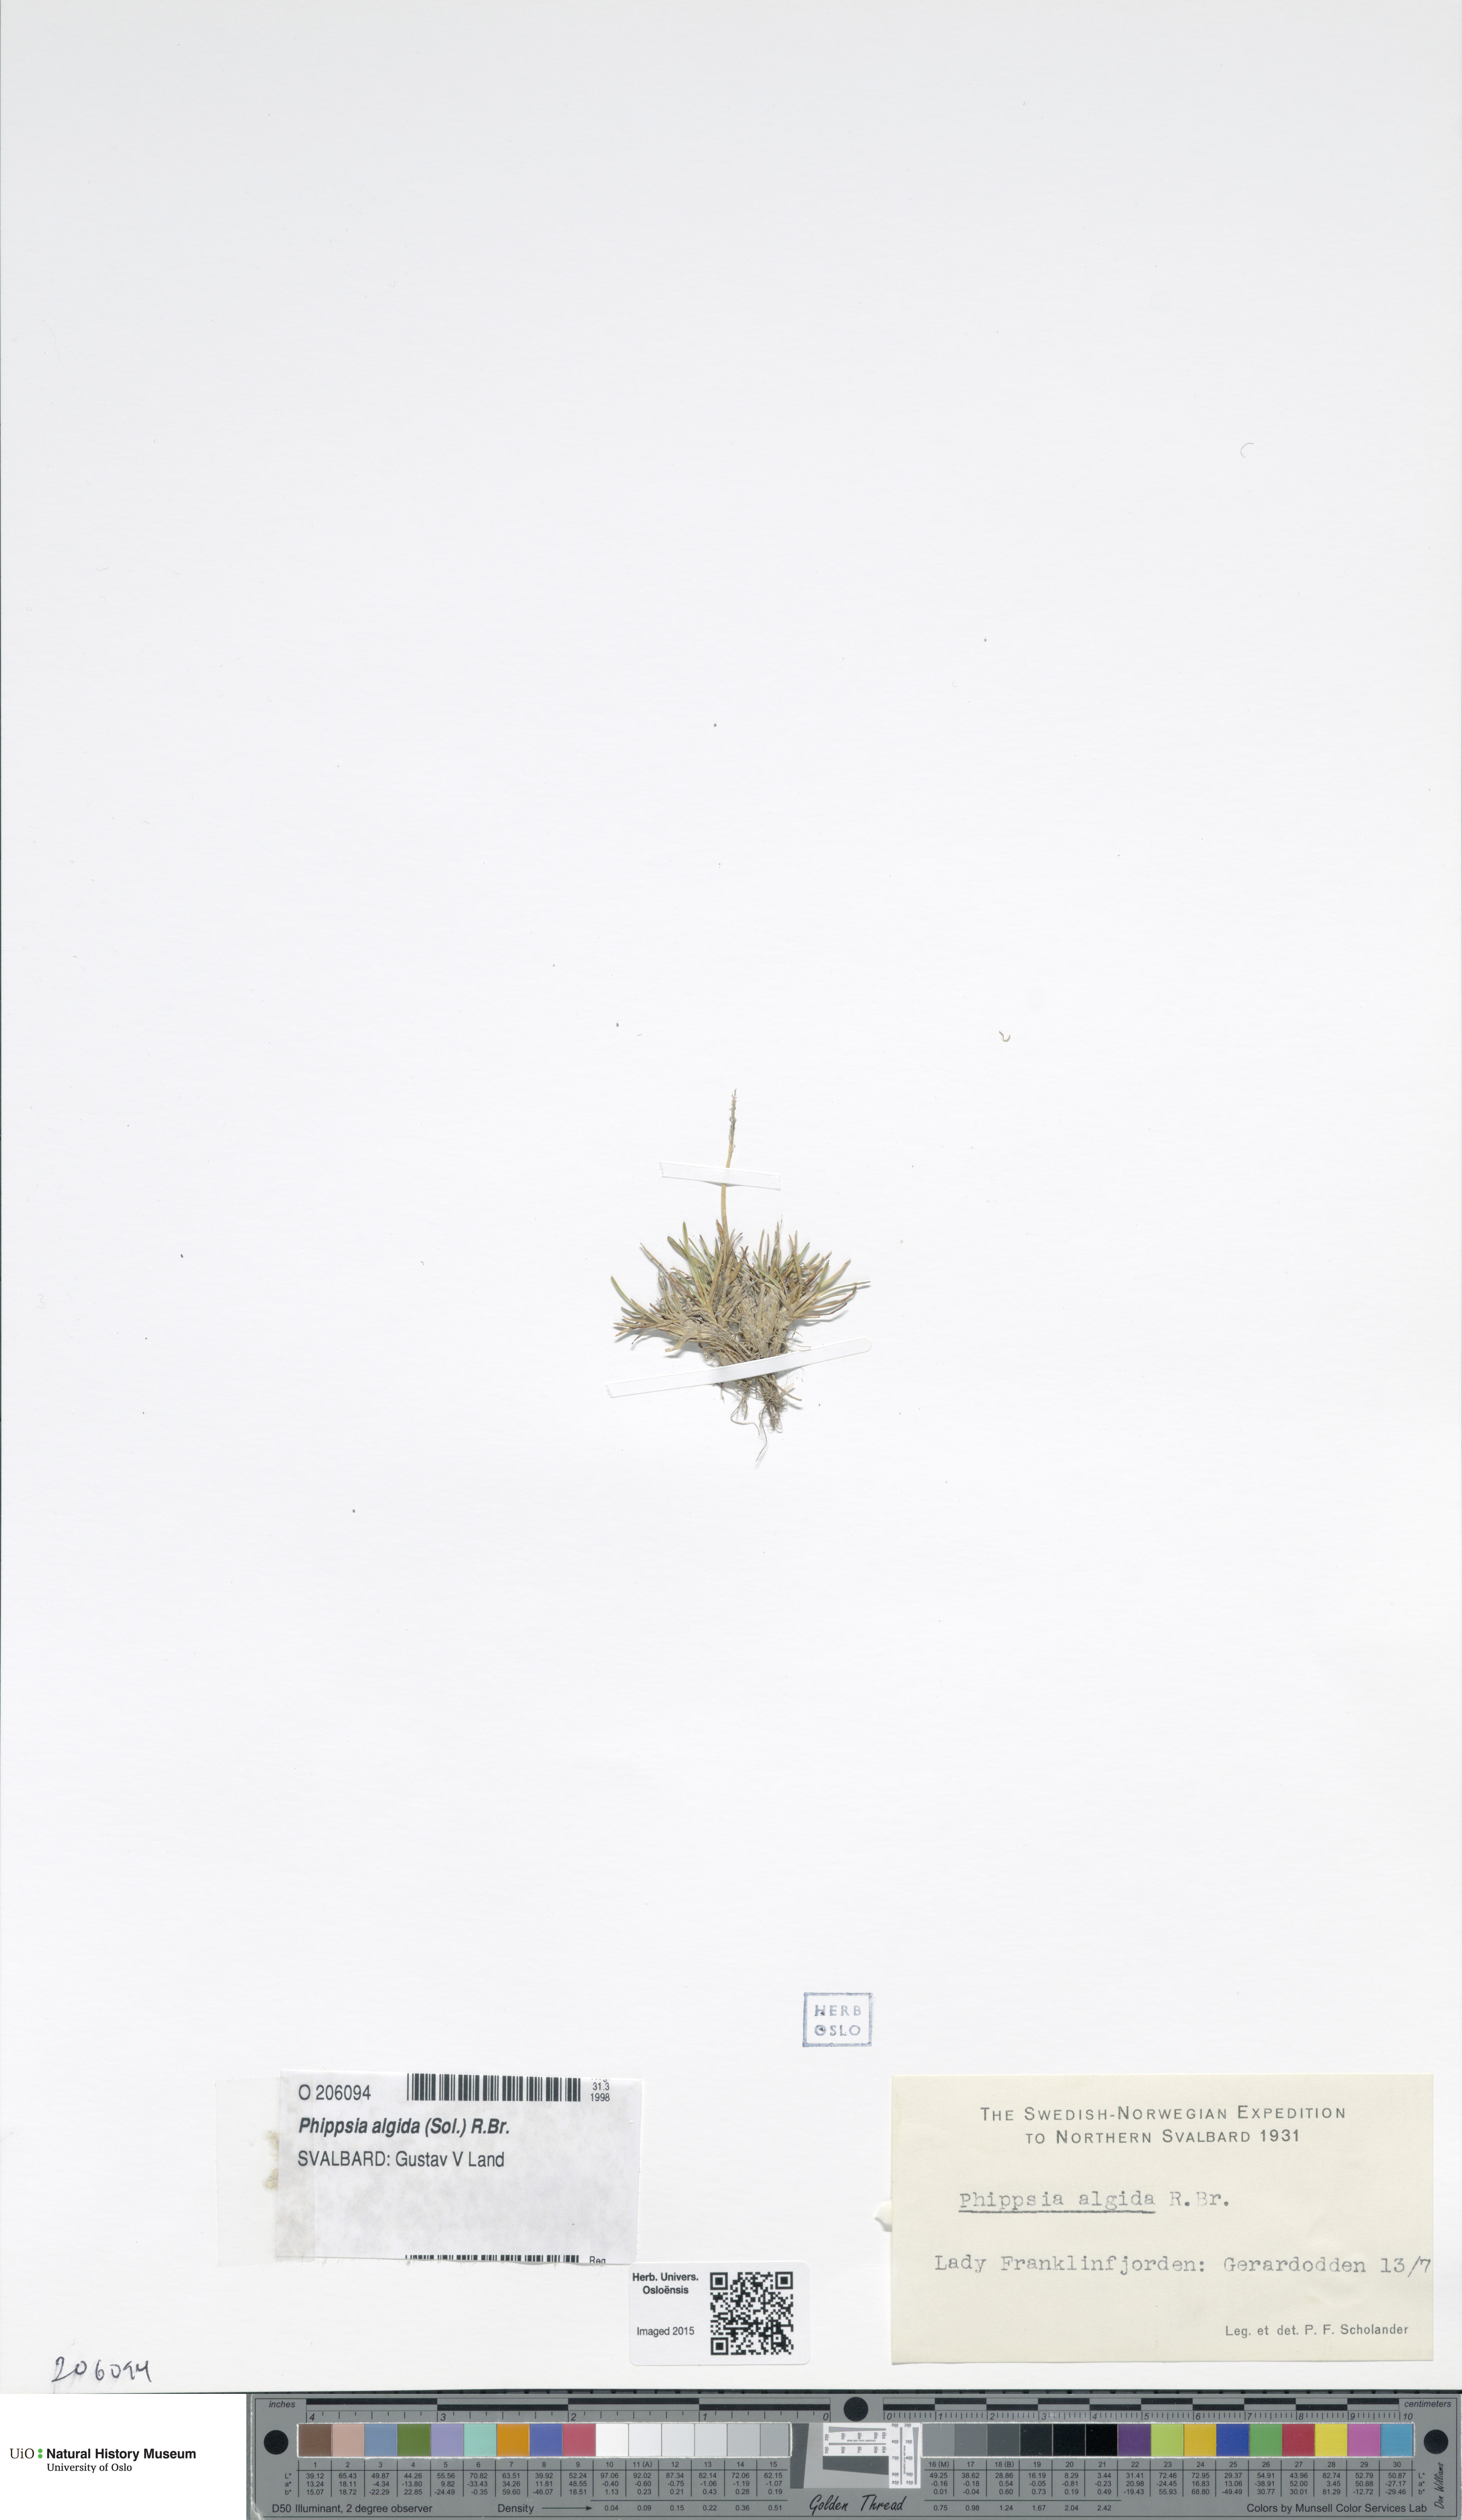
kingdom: Plantae
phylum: Tracheophyta
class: Liliopsida
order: Poales
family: Poaceae
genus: Phippsia
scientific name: Phippsia algida
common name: Ice grass
